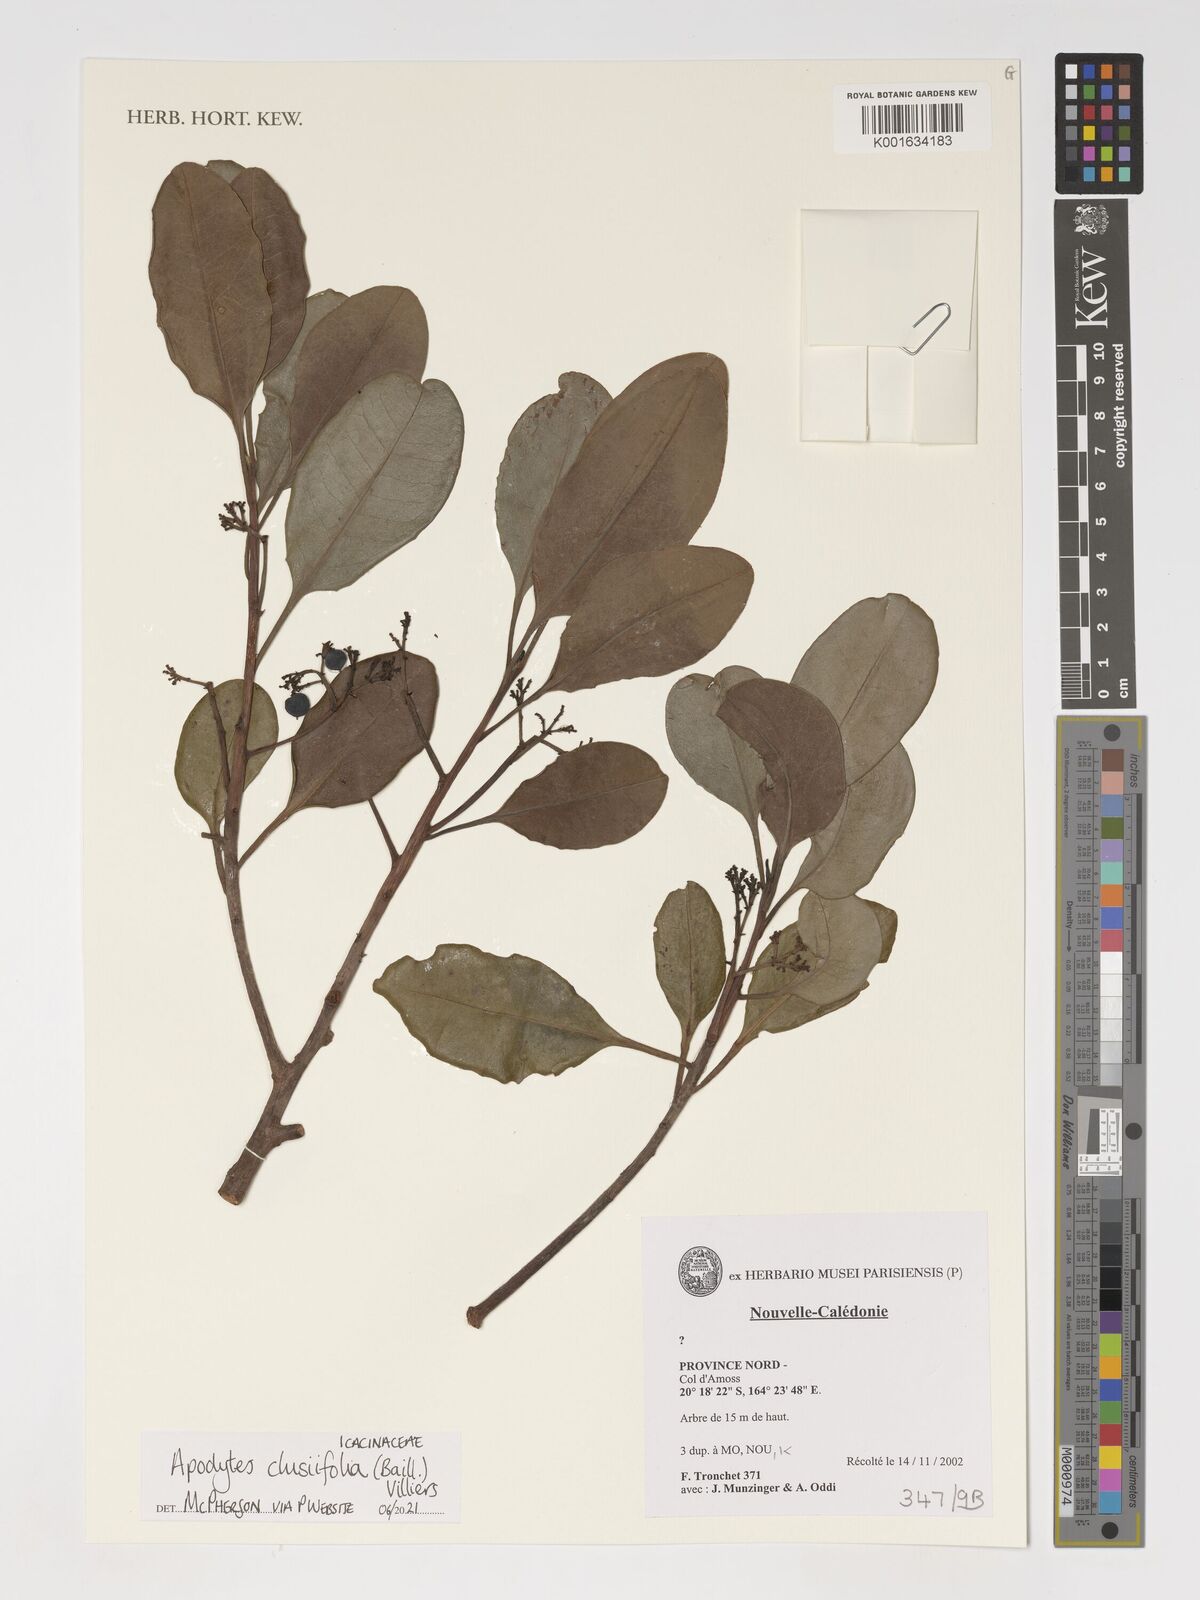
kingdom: Plantae
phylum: Tracheophyta
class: Magnoliopsida
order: Metteniusales
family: Metteniusaceae
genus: Apodytes
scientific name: Apodytes clusiifolia
